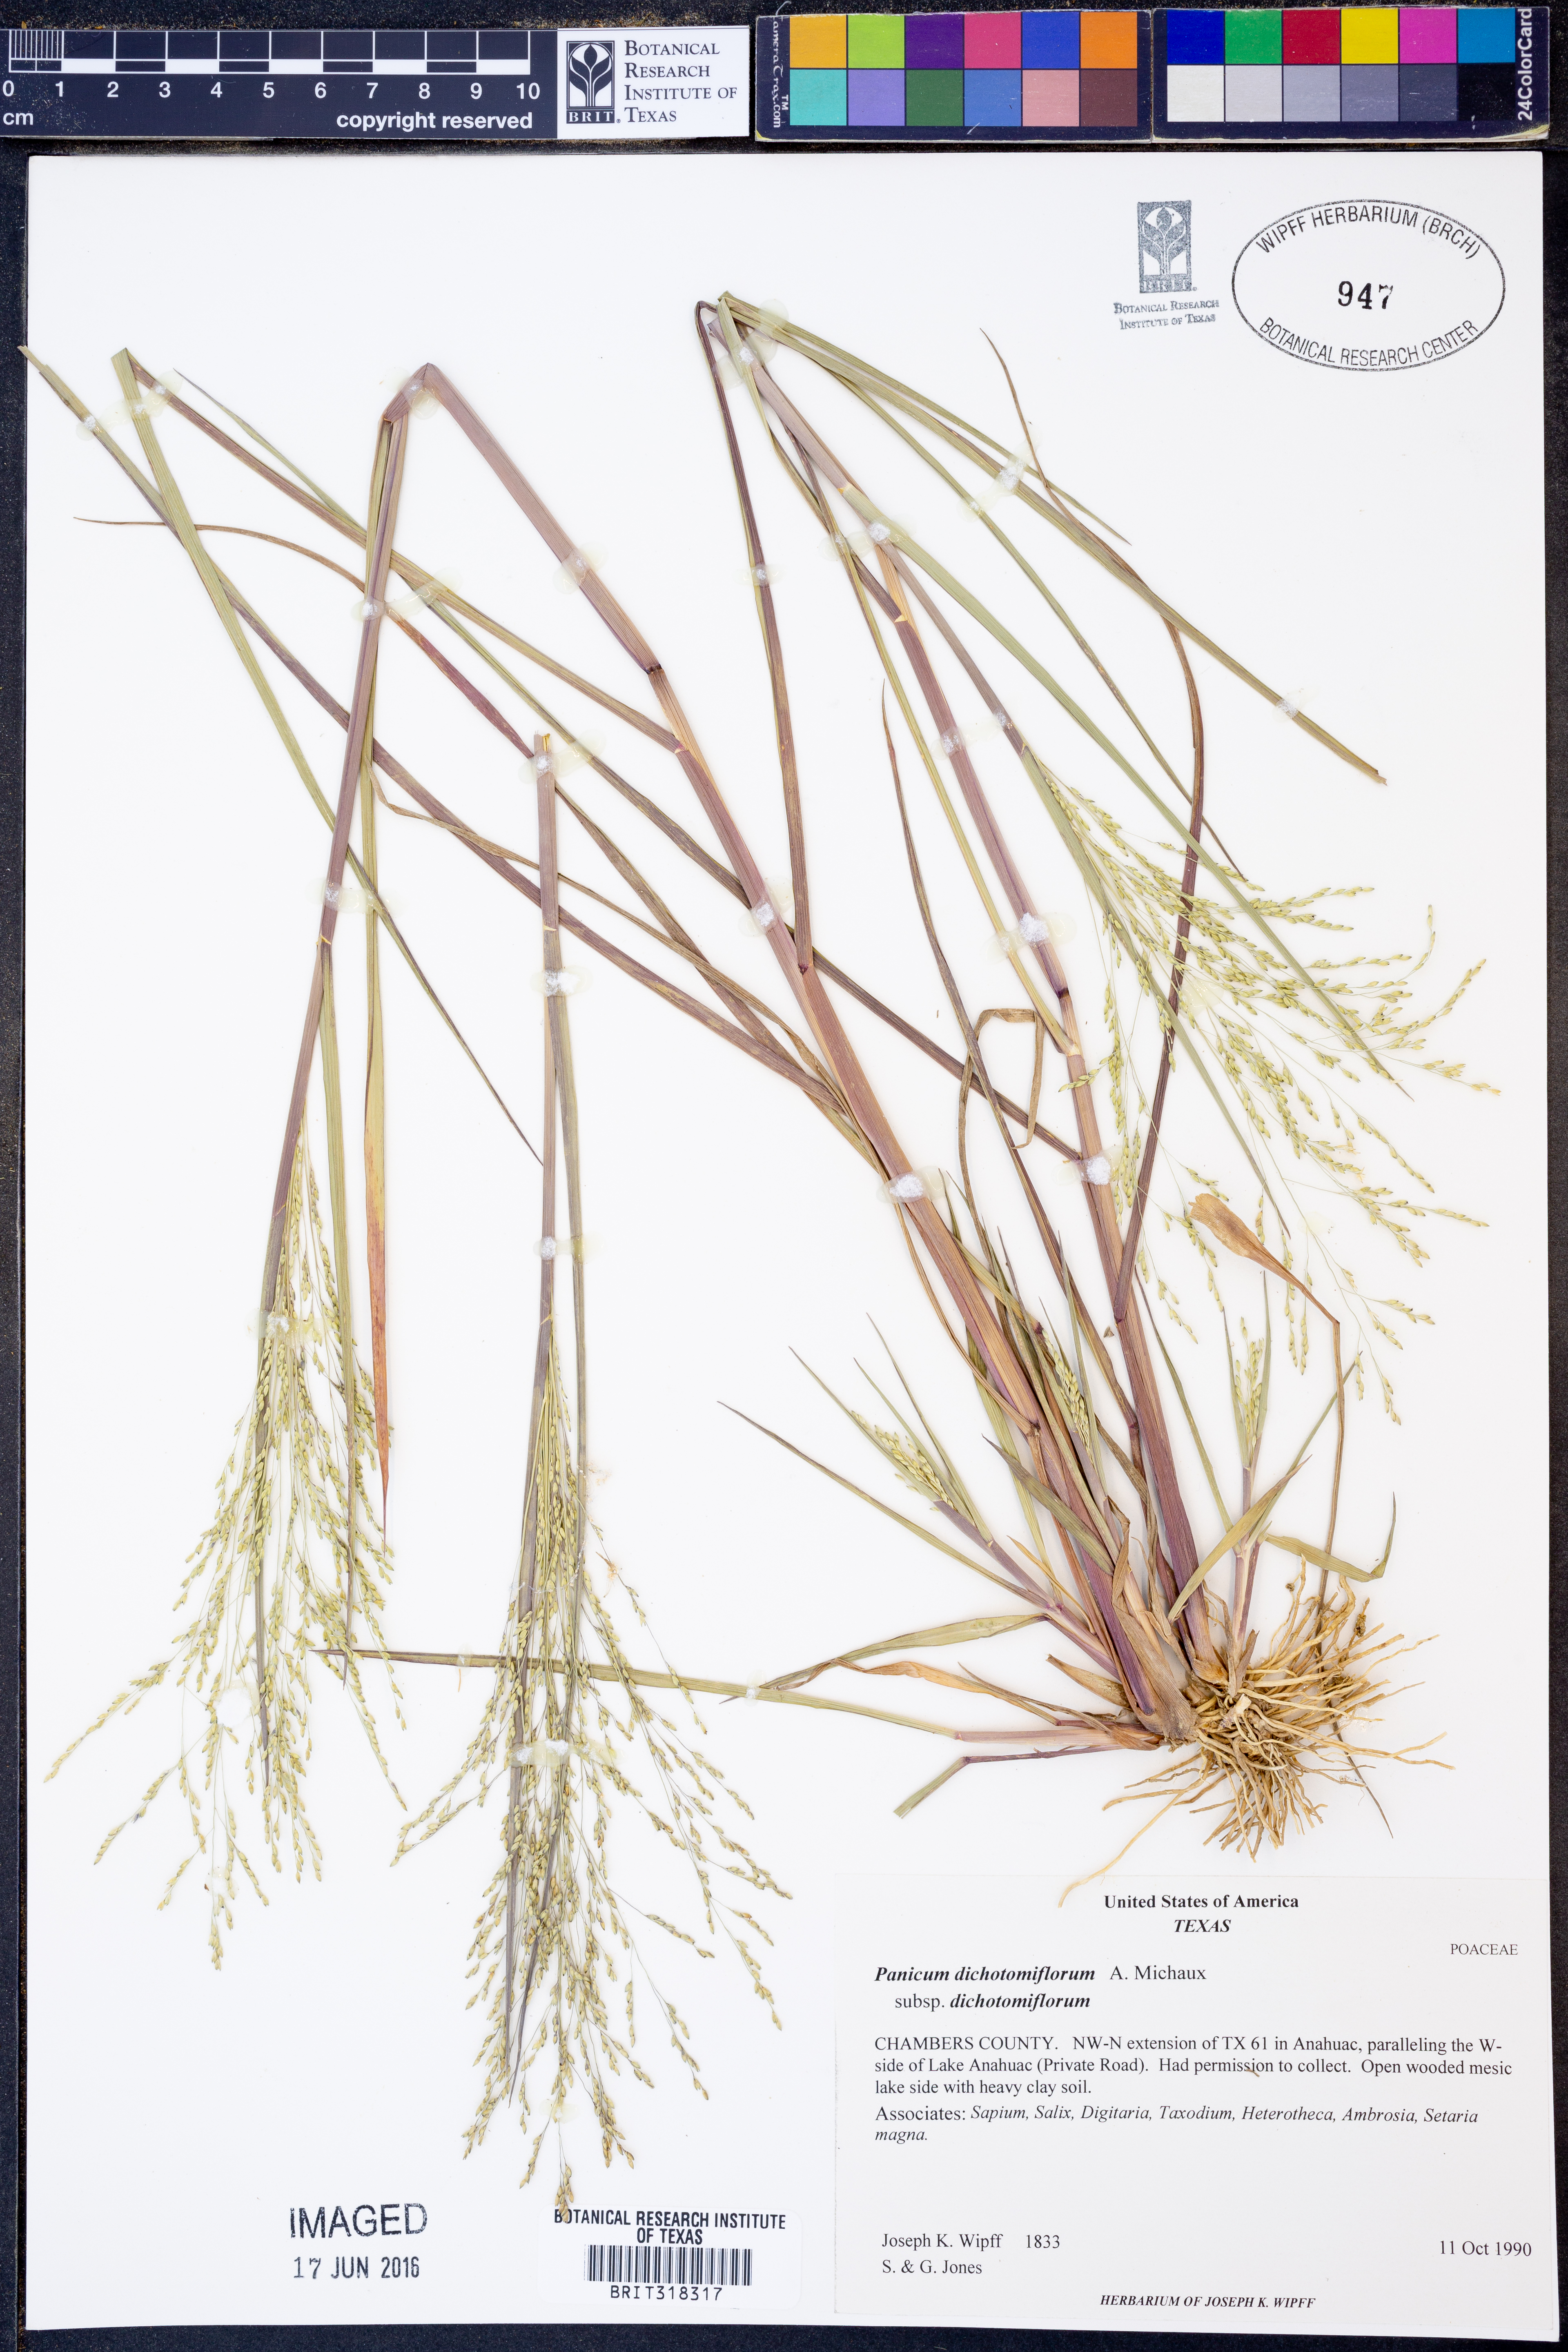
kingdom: Plantae
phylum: Tracheophyta
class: Liliopsida
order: Poales
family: Poaceae
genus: Panicum
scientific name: Panicum dichotomiflorum
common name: Autumn millet
